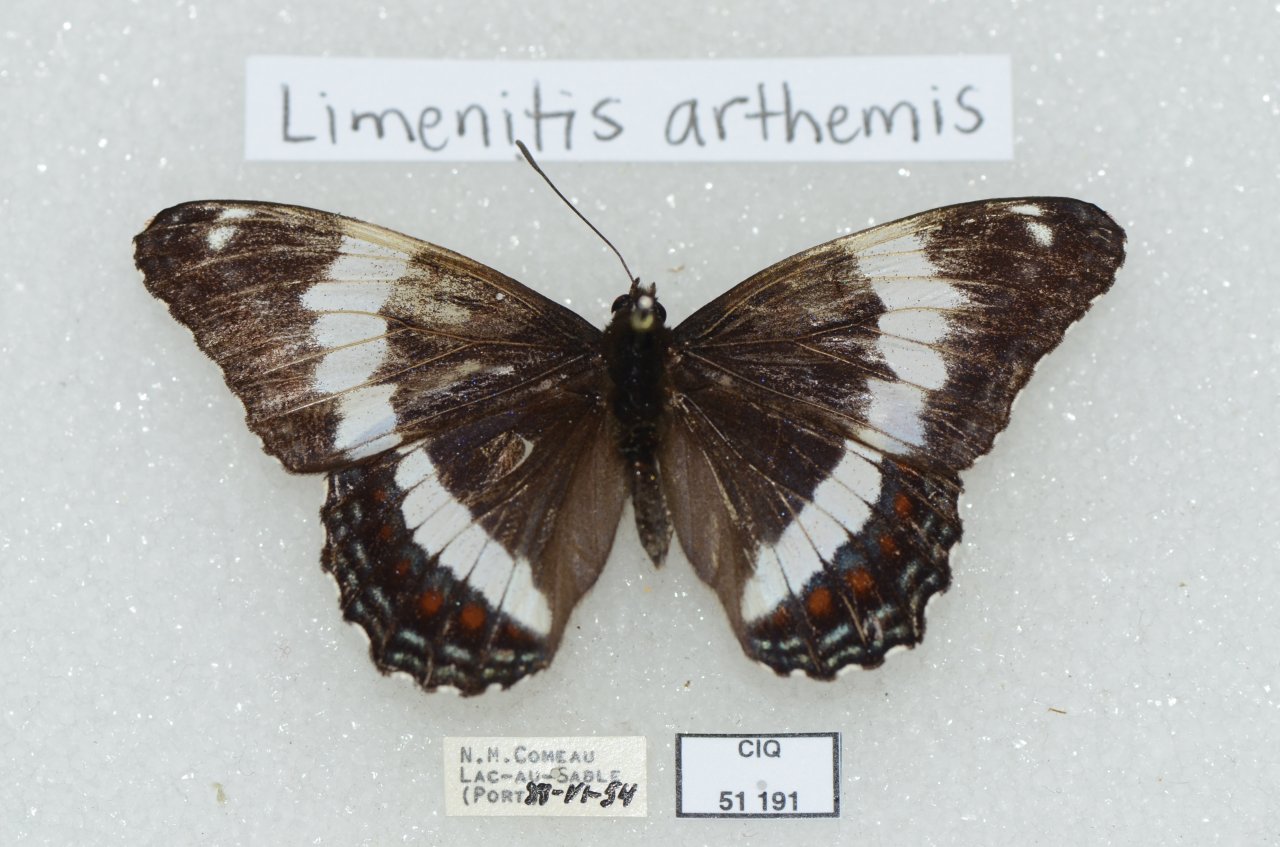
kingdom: Animalia
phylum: Arthropoda
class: Insecta
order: Lepidoptera
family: Nymphalidae
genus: Limenitis
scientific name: Limenitis arthemis
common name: Red-spotted Admiral
